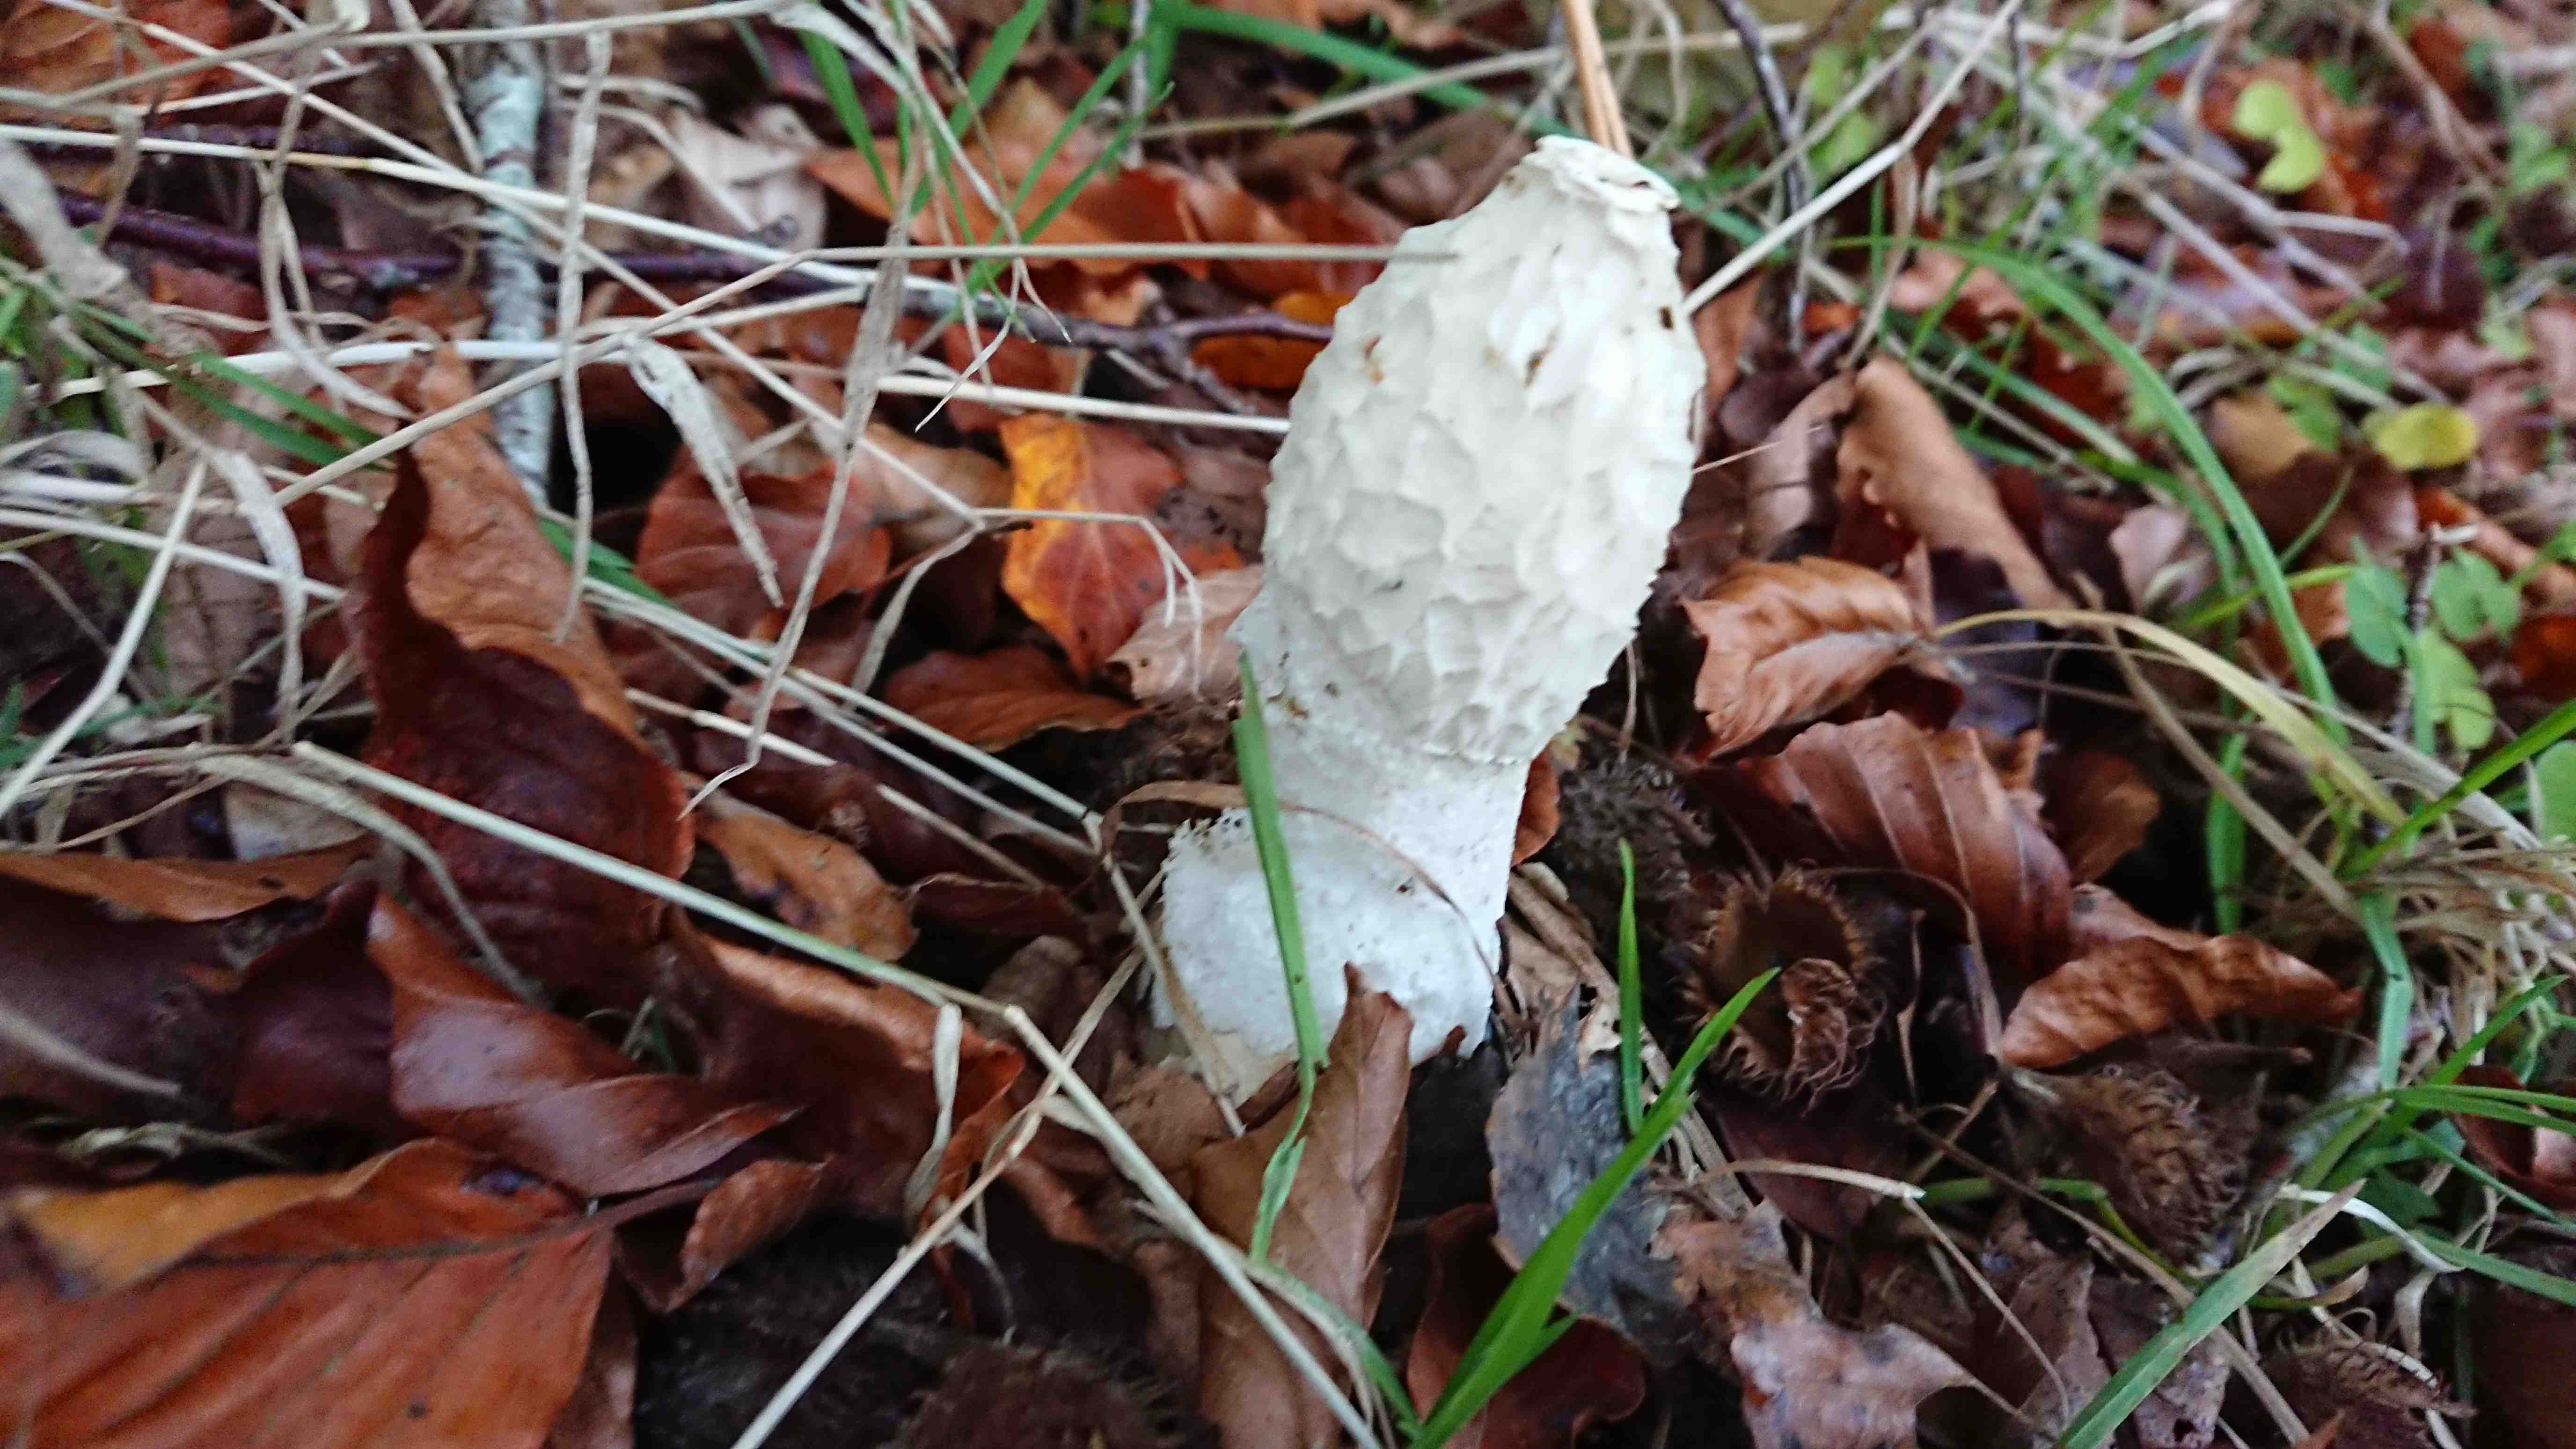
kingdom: Fungi
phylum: Basidiomycota
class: Agaricomycetes
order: Phallales
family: Phallaceae
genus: Phallus
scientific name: Phallus impudicus
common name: almindelig stinksvamp
